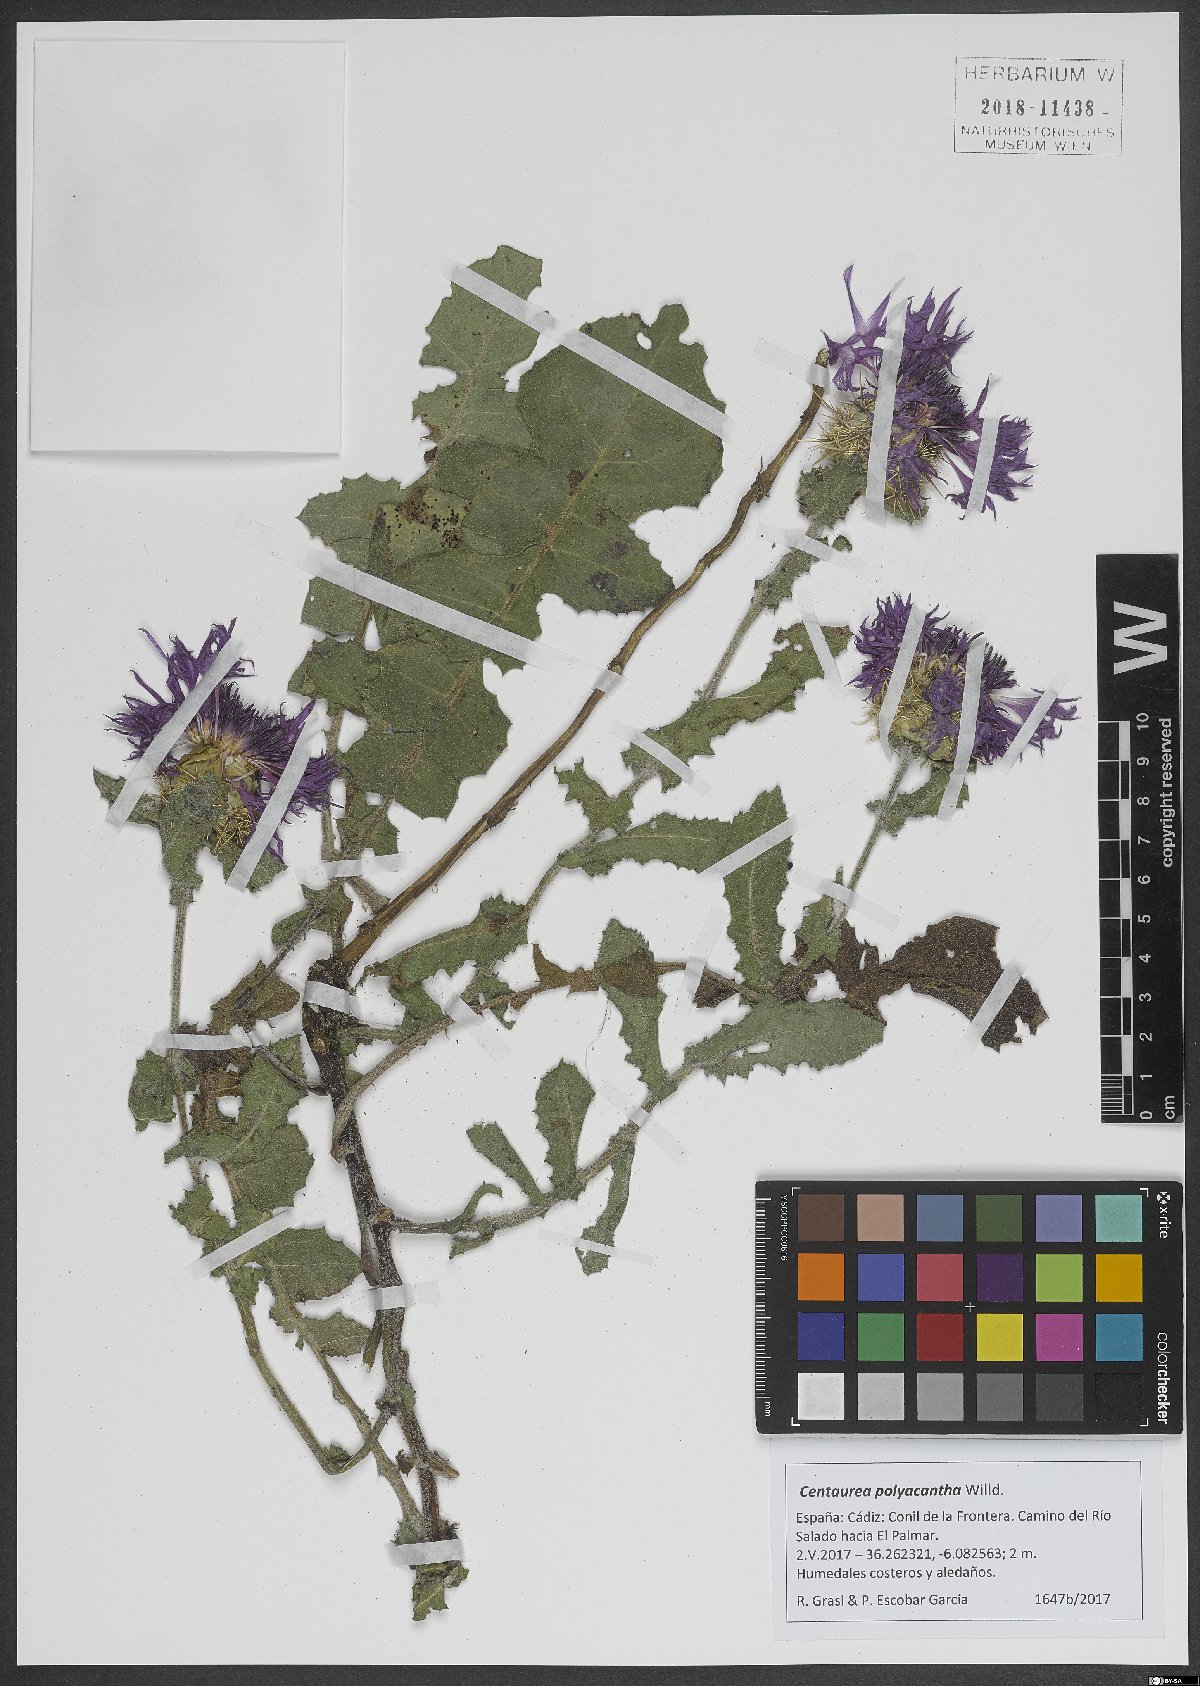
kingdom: Plantae
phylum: Tracheophyta
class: Magnoliopsida
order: Asterales
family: Asteraceae
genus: Centaurea
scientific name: Centaurea polyacantha
